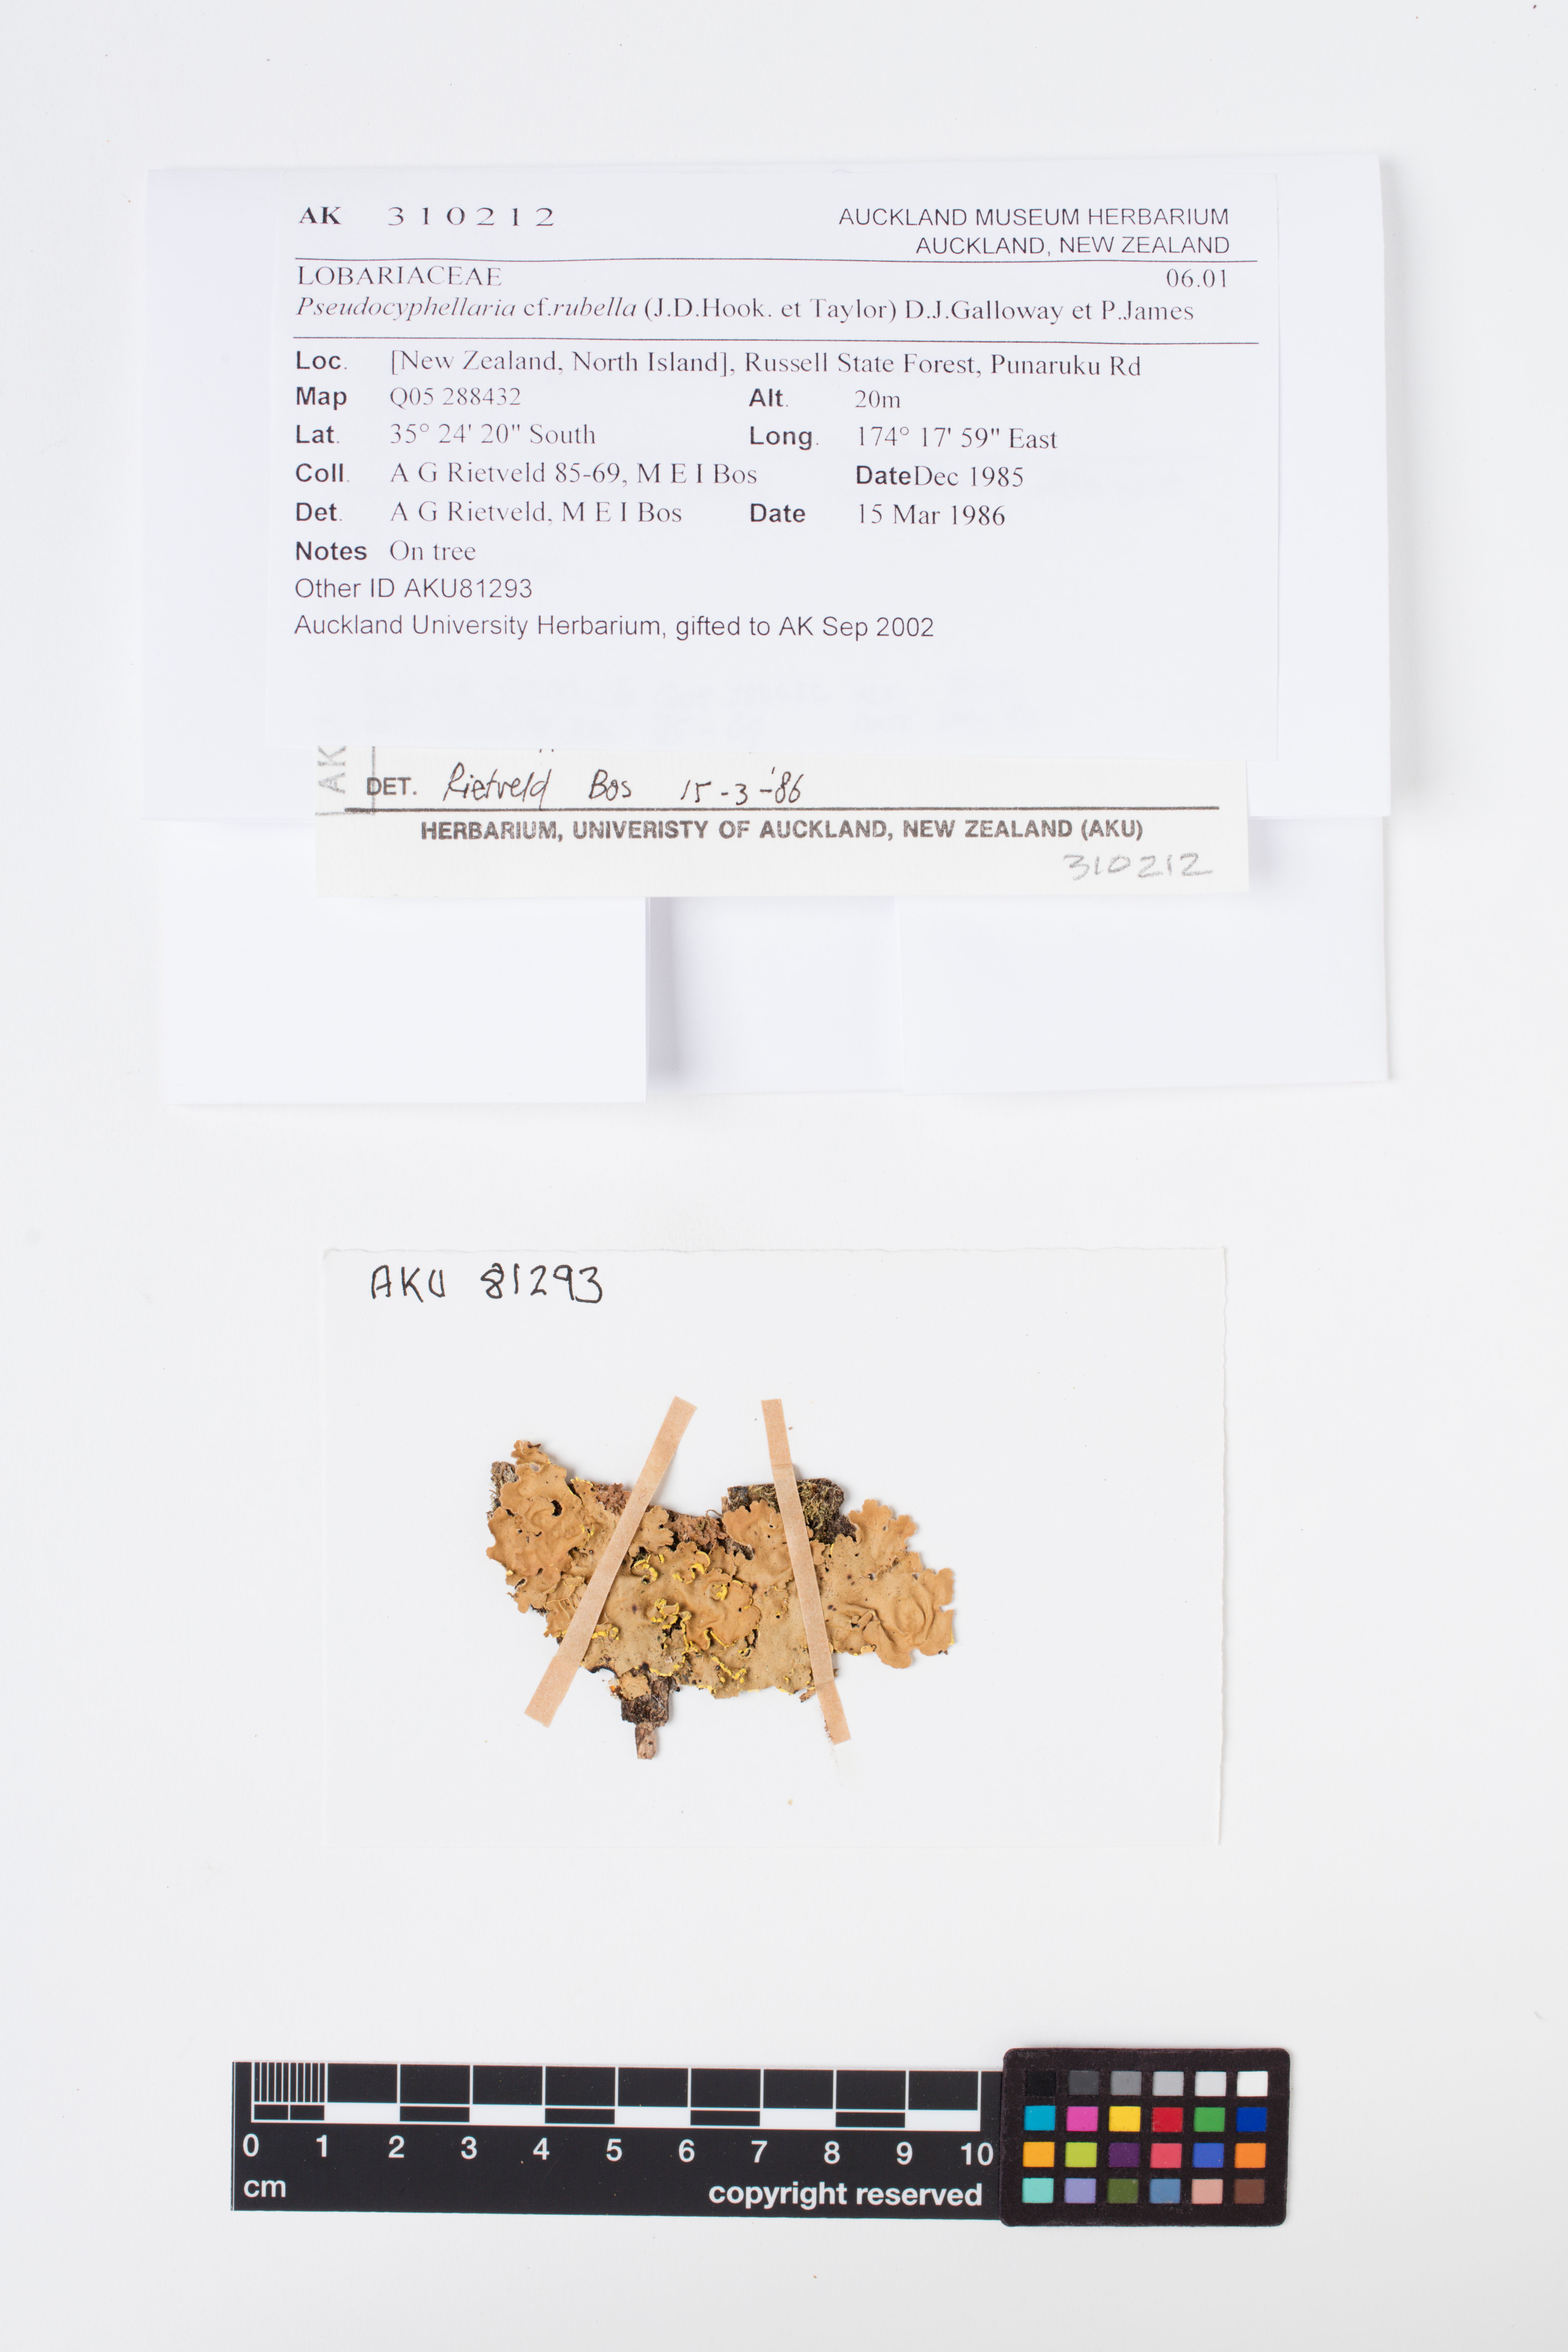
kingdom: Fungi
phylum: Ascomycota
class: Lecanoromycetes
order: Peltigerales
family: Lobariaceae
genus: Pseudocyphellaria
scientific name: Pseudocyphellaria rubella
